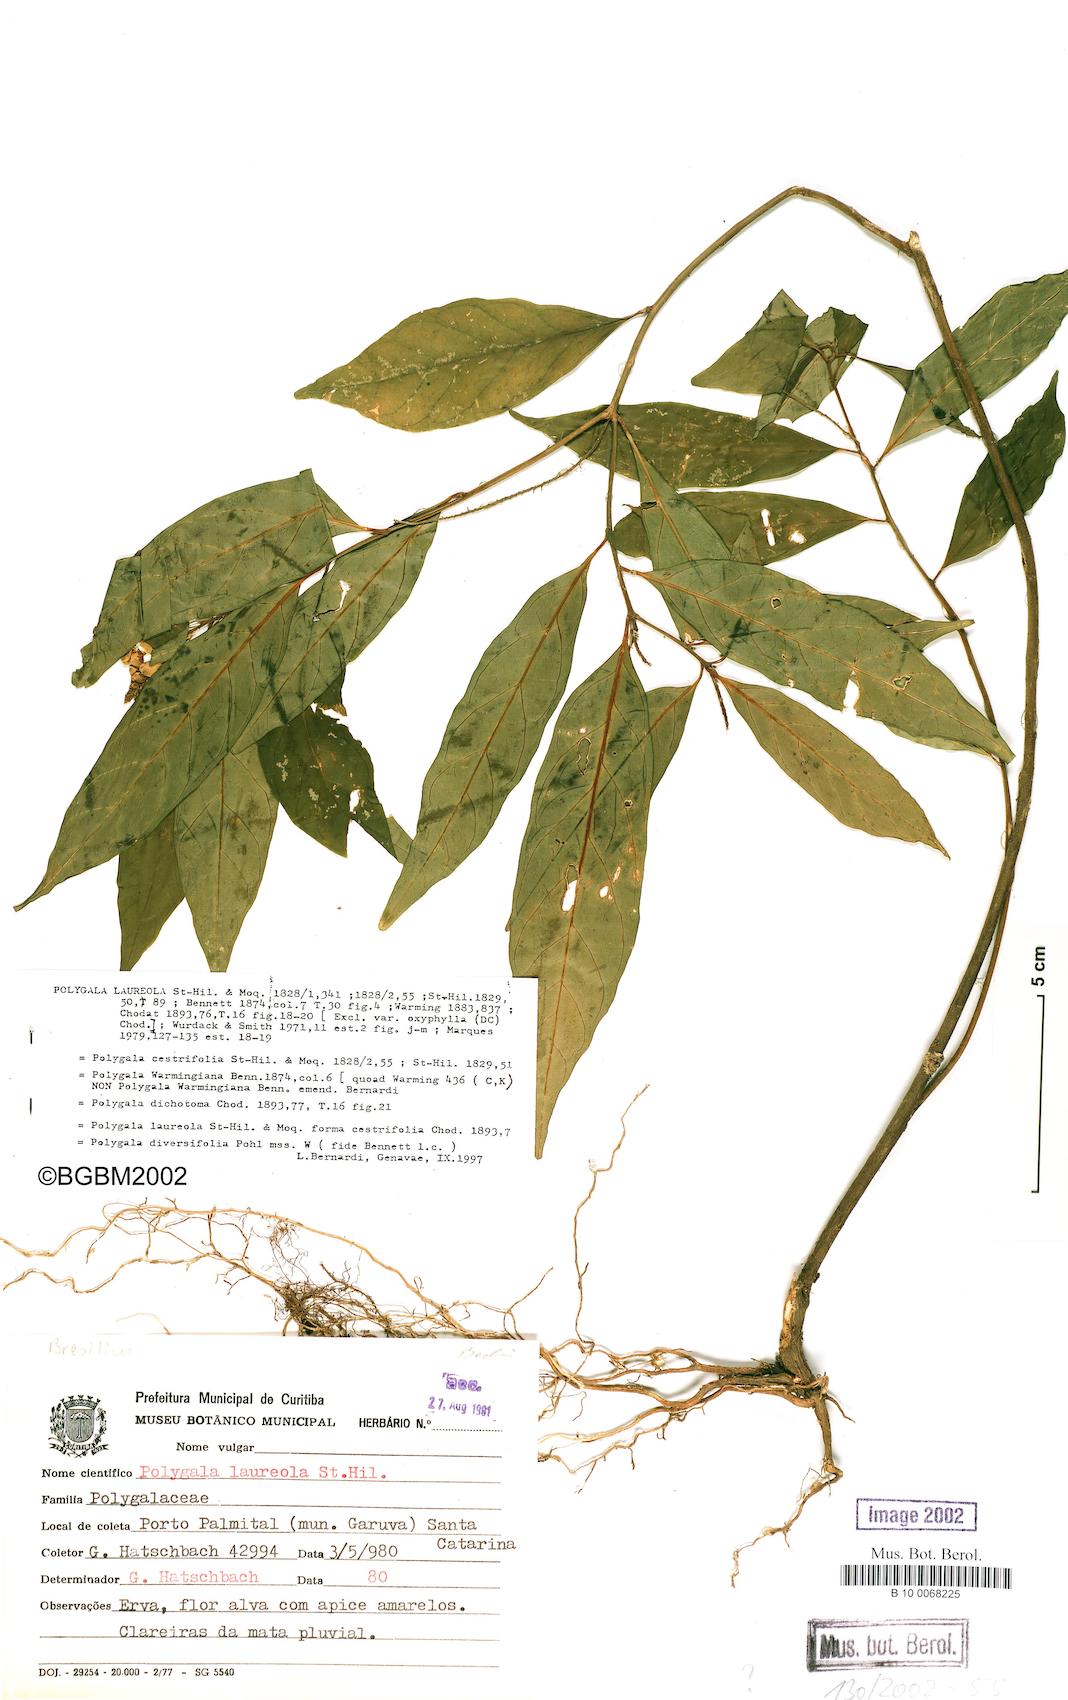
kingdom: Plantae
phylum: Tracheophyta
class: Magnoliopsida
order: Fabales
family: Polygalaceae
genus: Caamembeca
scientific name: Caamembeca salicifolia
